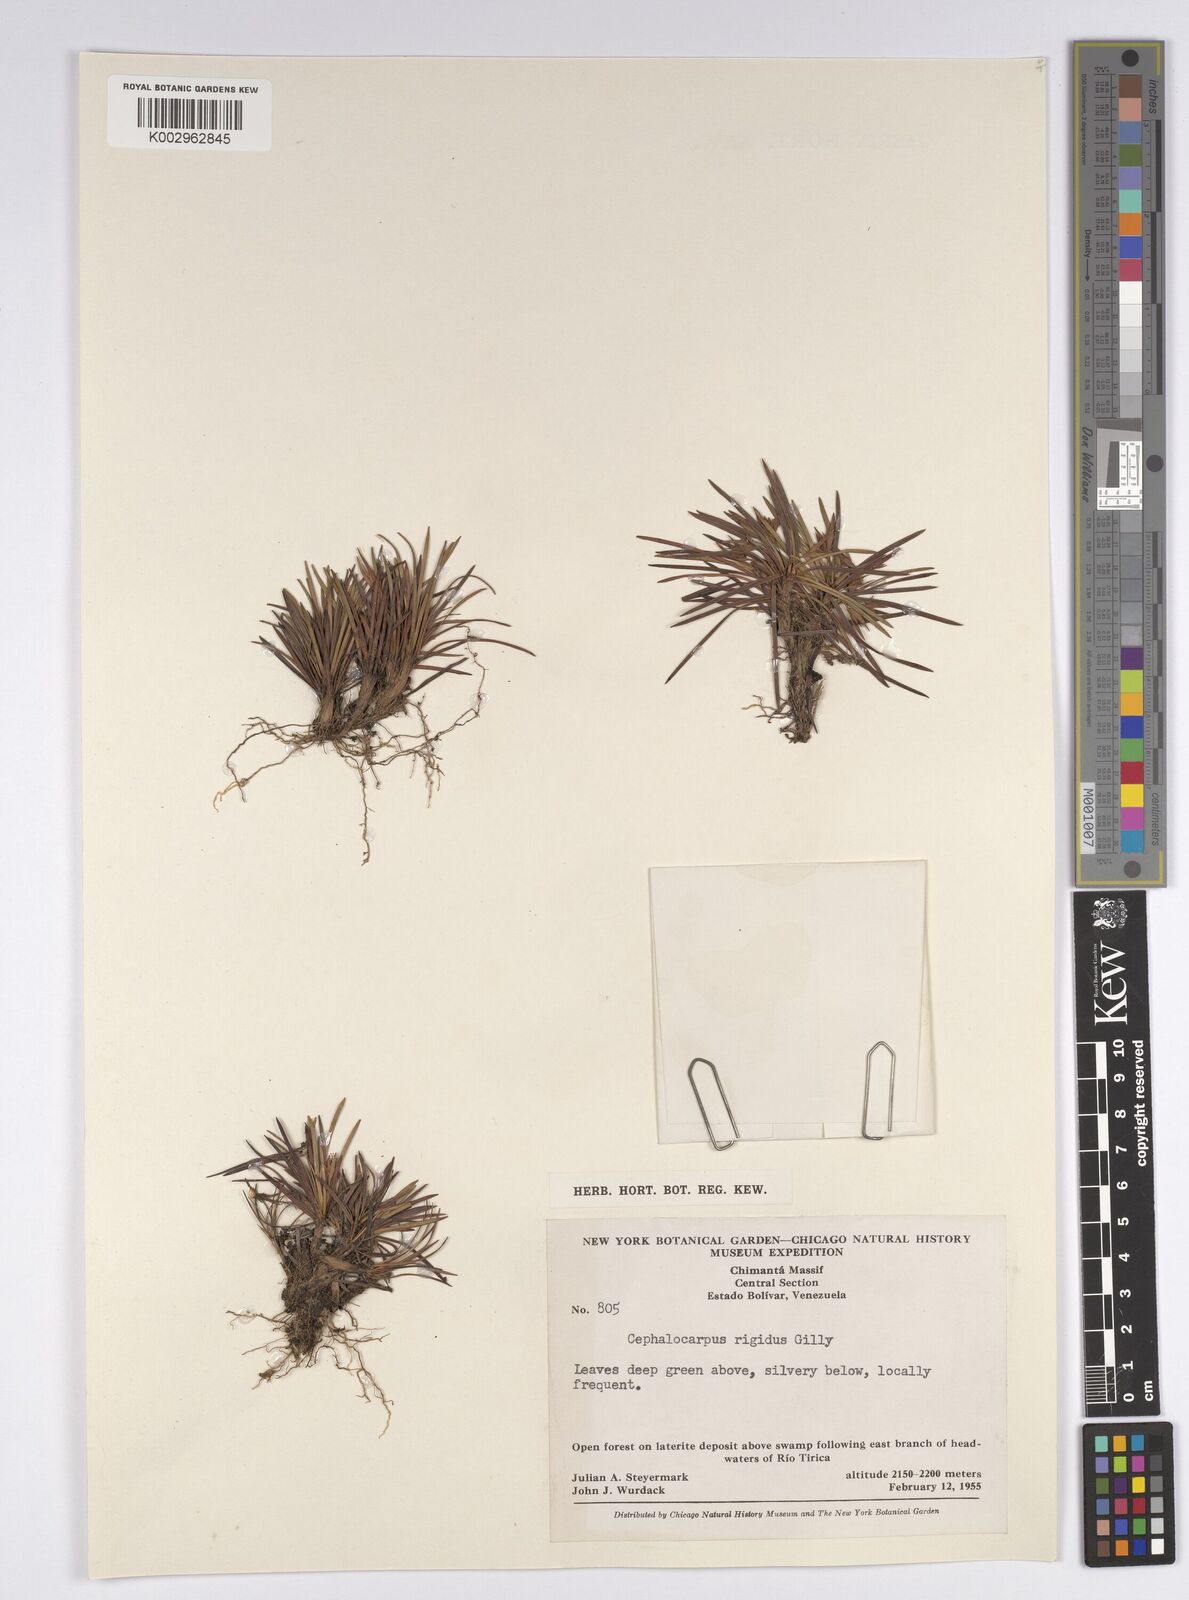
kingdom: Plantae
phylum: Tracheophyta
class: Liliopsida
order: Poales
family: Cyperaceae
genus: Cephalocarpus
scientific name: Cephalocarpus rigidus
